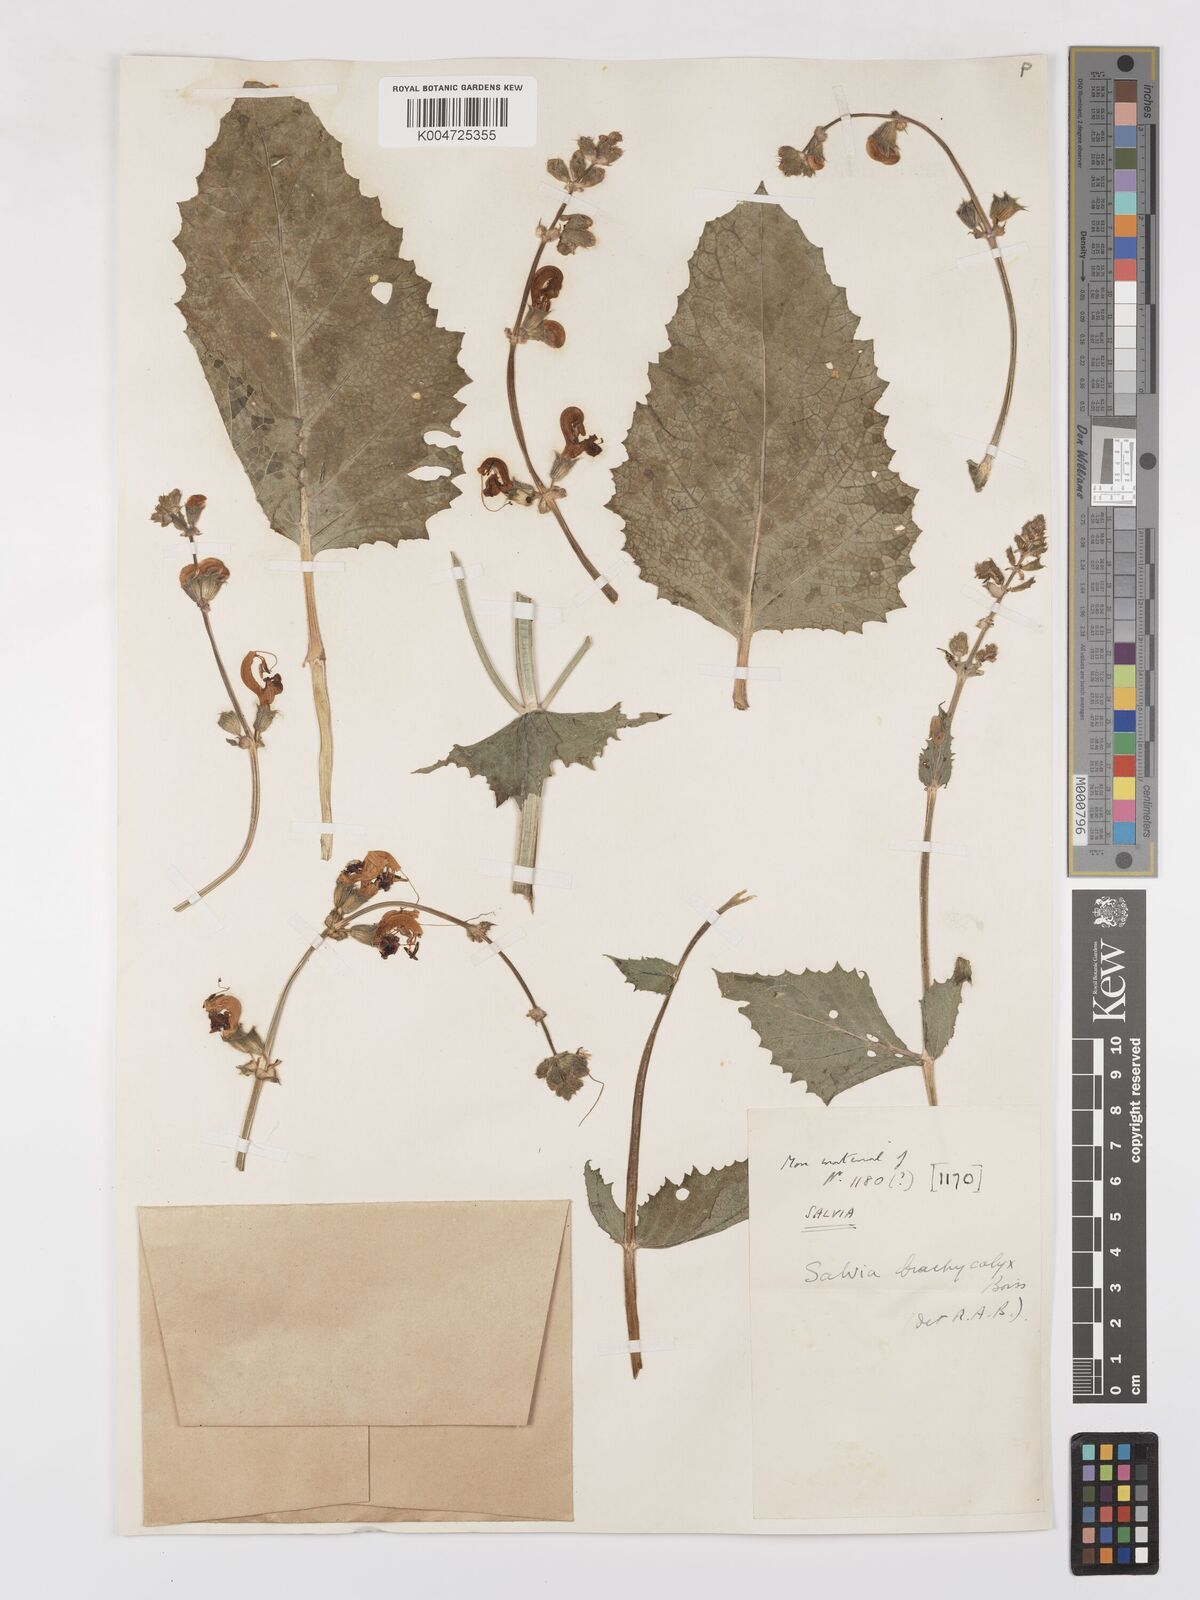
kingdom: Plantae
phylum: Tracheophyta
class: Magnoliopsida
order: Lamiales
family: Lamiaceae
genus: Salvia
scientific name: Salvia indica
